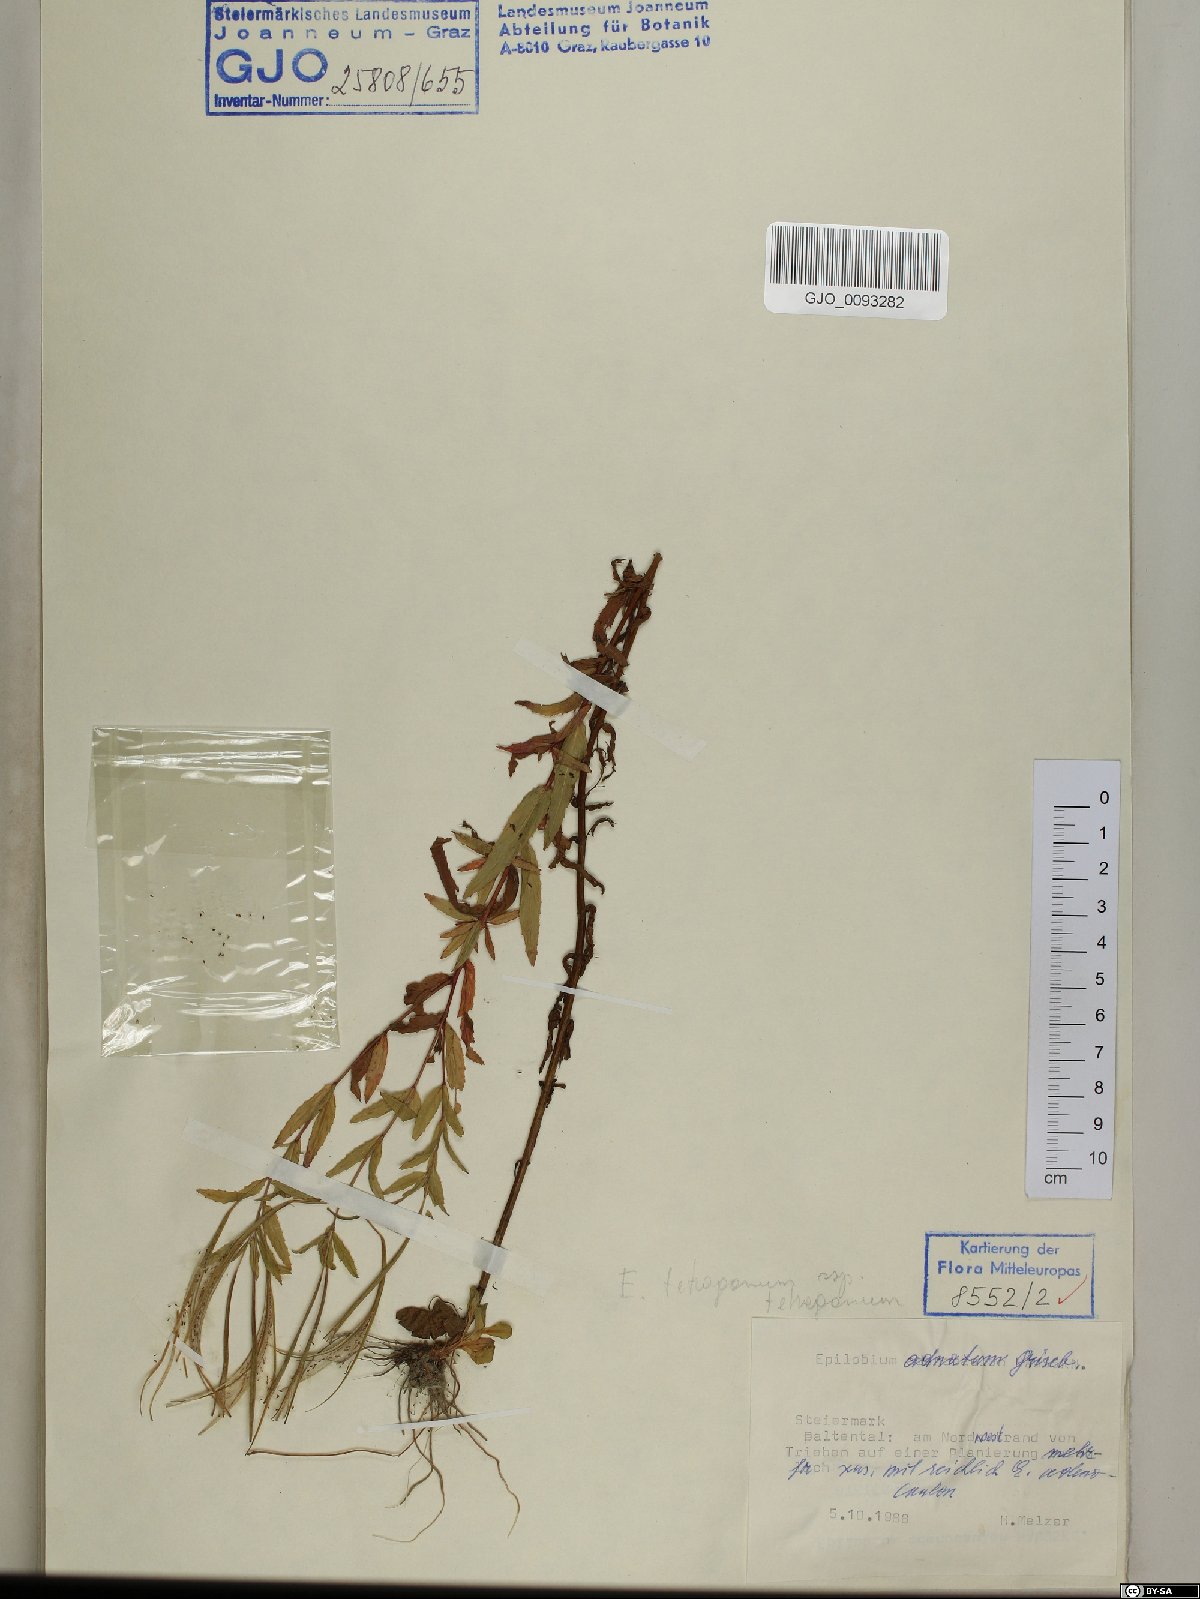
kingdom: Plantae
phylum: Tracheophyta
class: Magnoliopsida
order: Myrtales
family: Onagraceae
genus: Epilobium
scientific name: Epilobium tetragonum
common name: Square-stemmed willowherb
